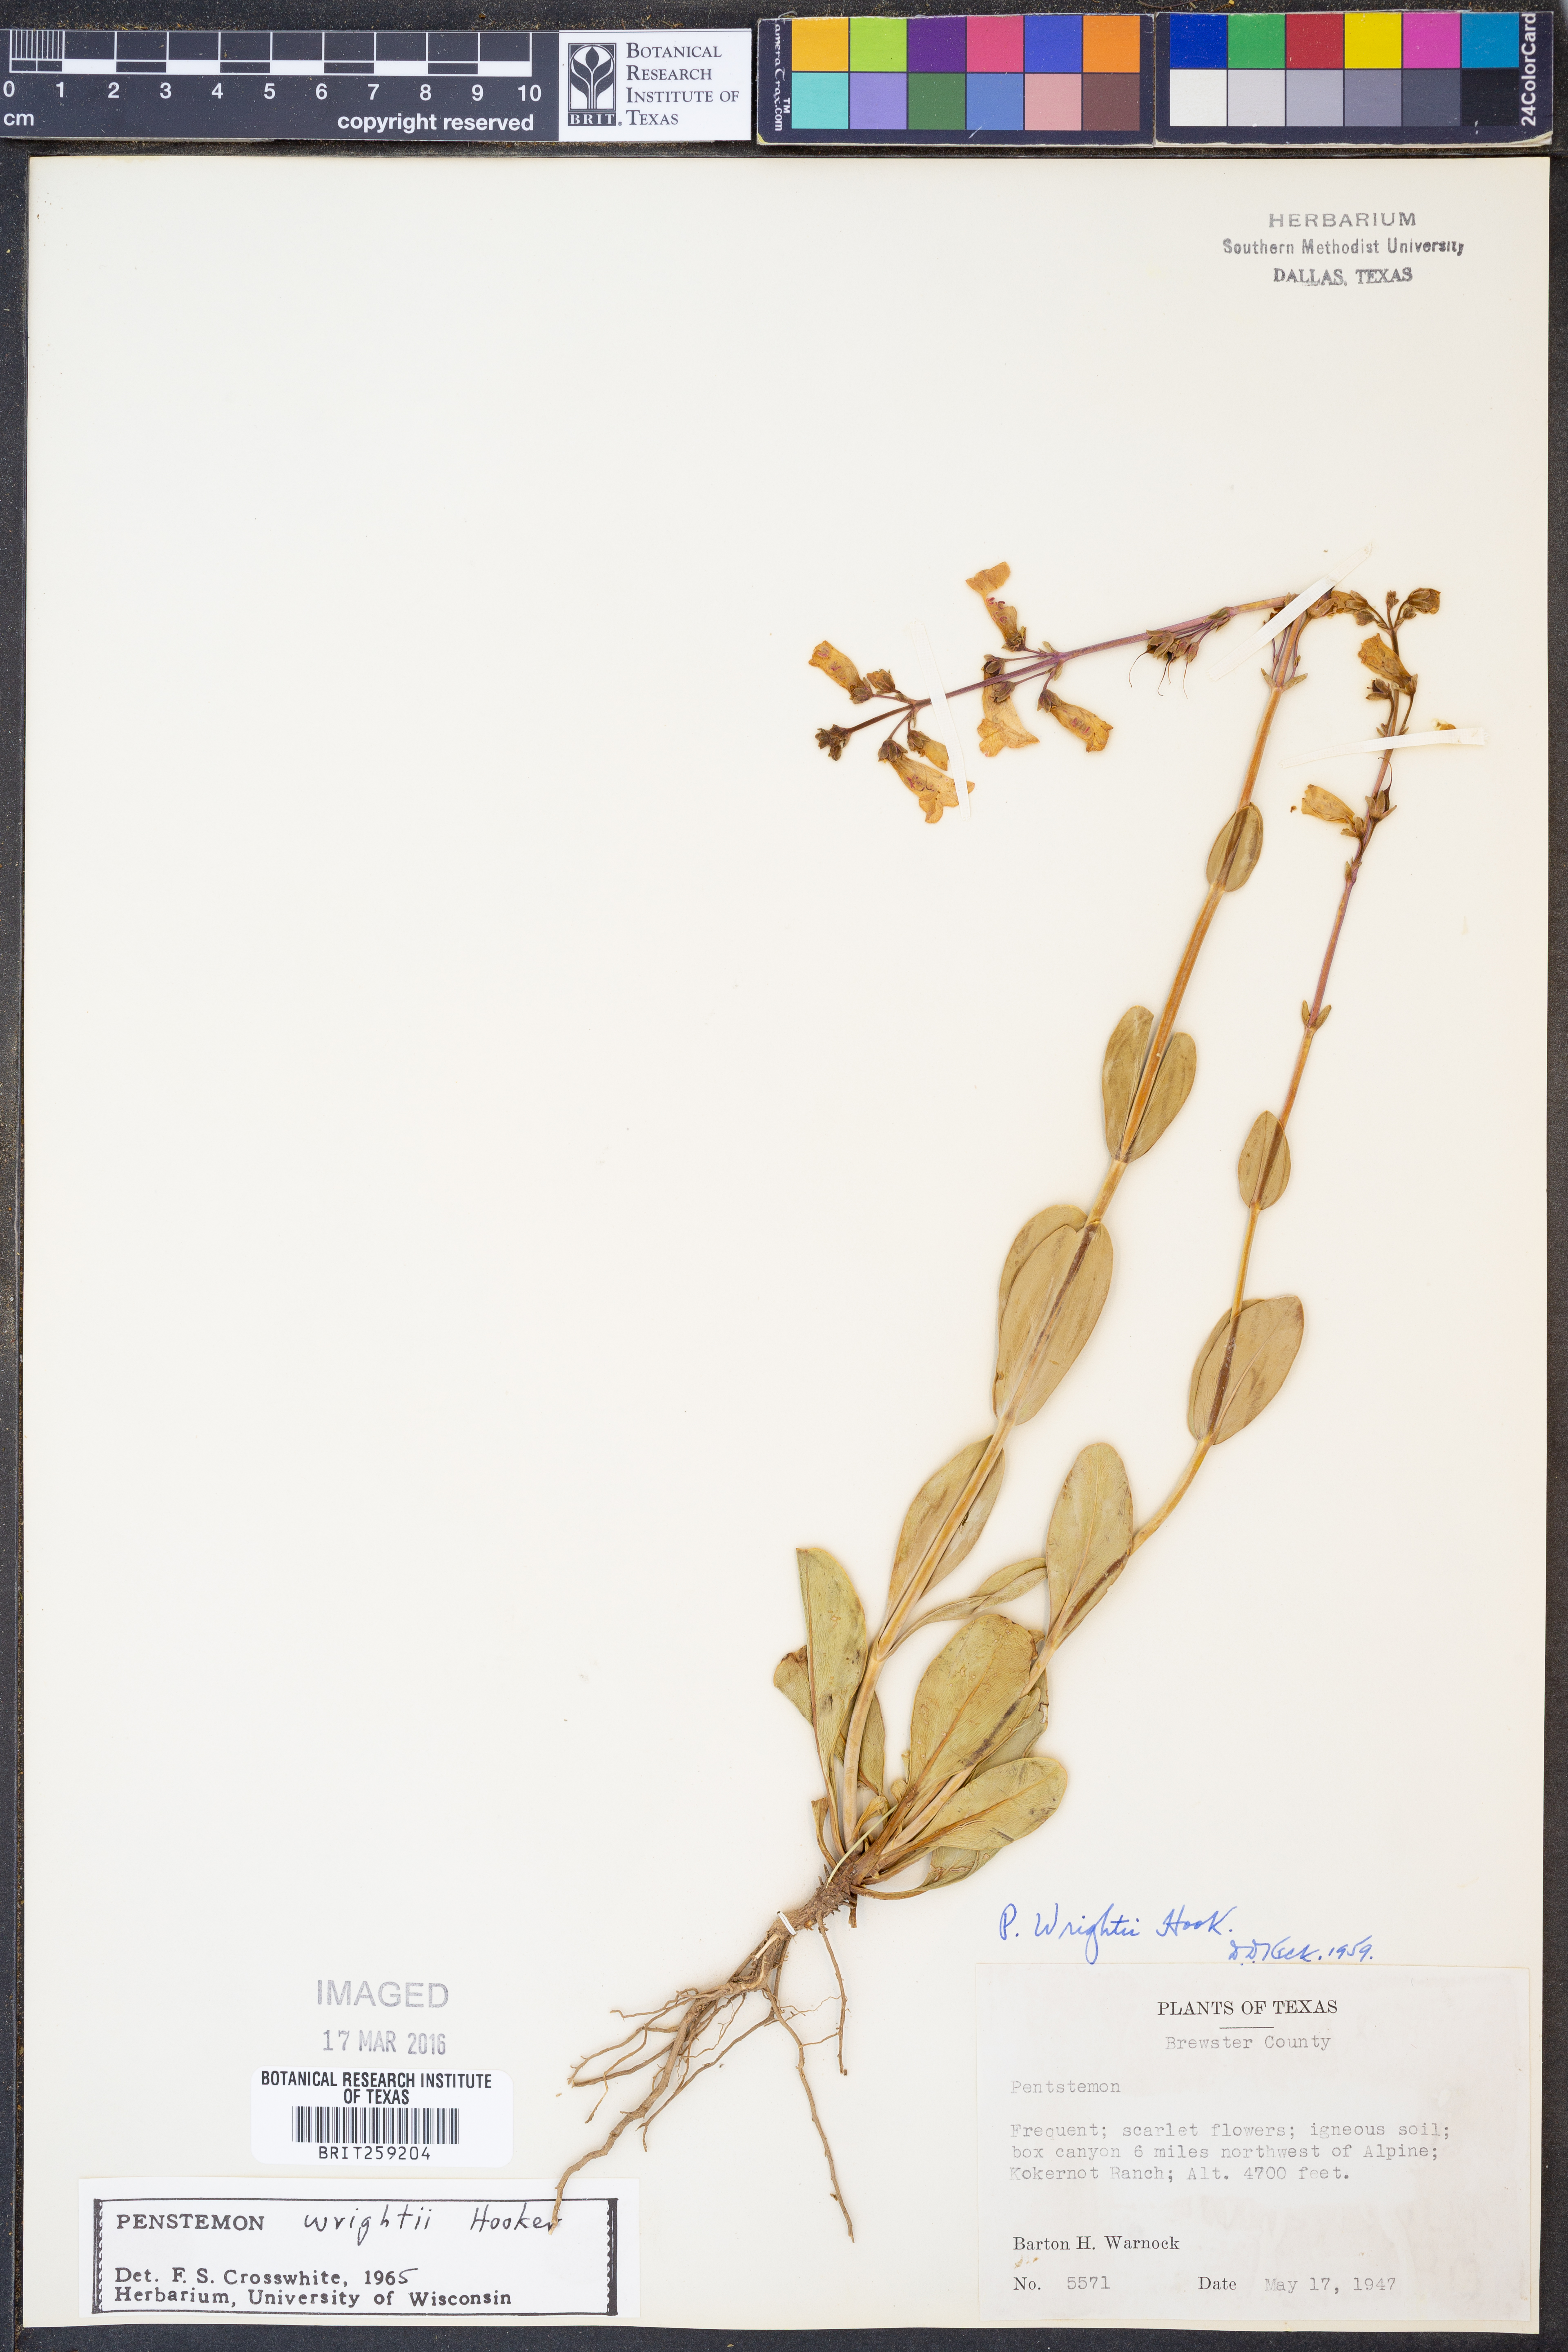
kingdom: Plantae
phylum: Tracheophyta
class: Magnoliopsida
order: Lamiales
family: Plantaginaceae
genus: Penstemon
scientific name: Penstemon wrightii
